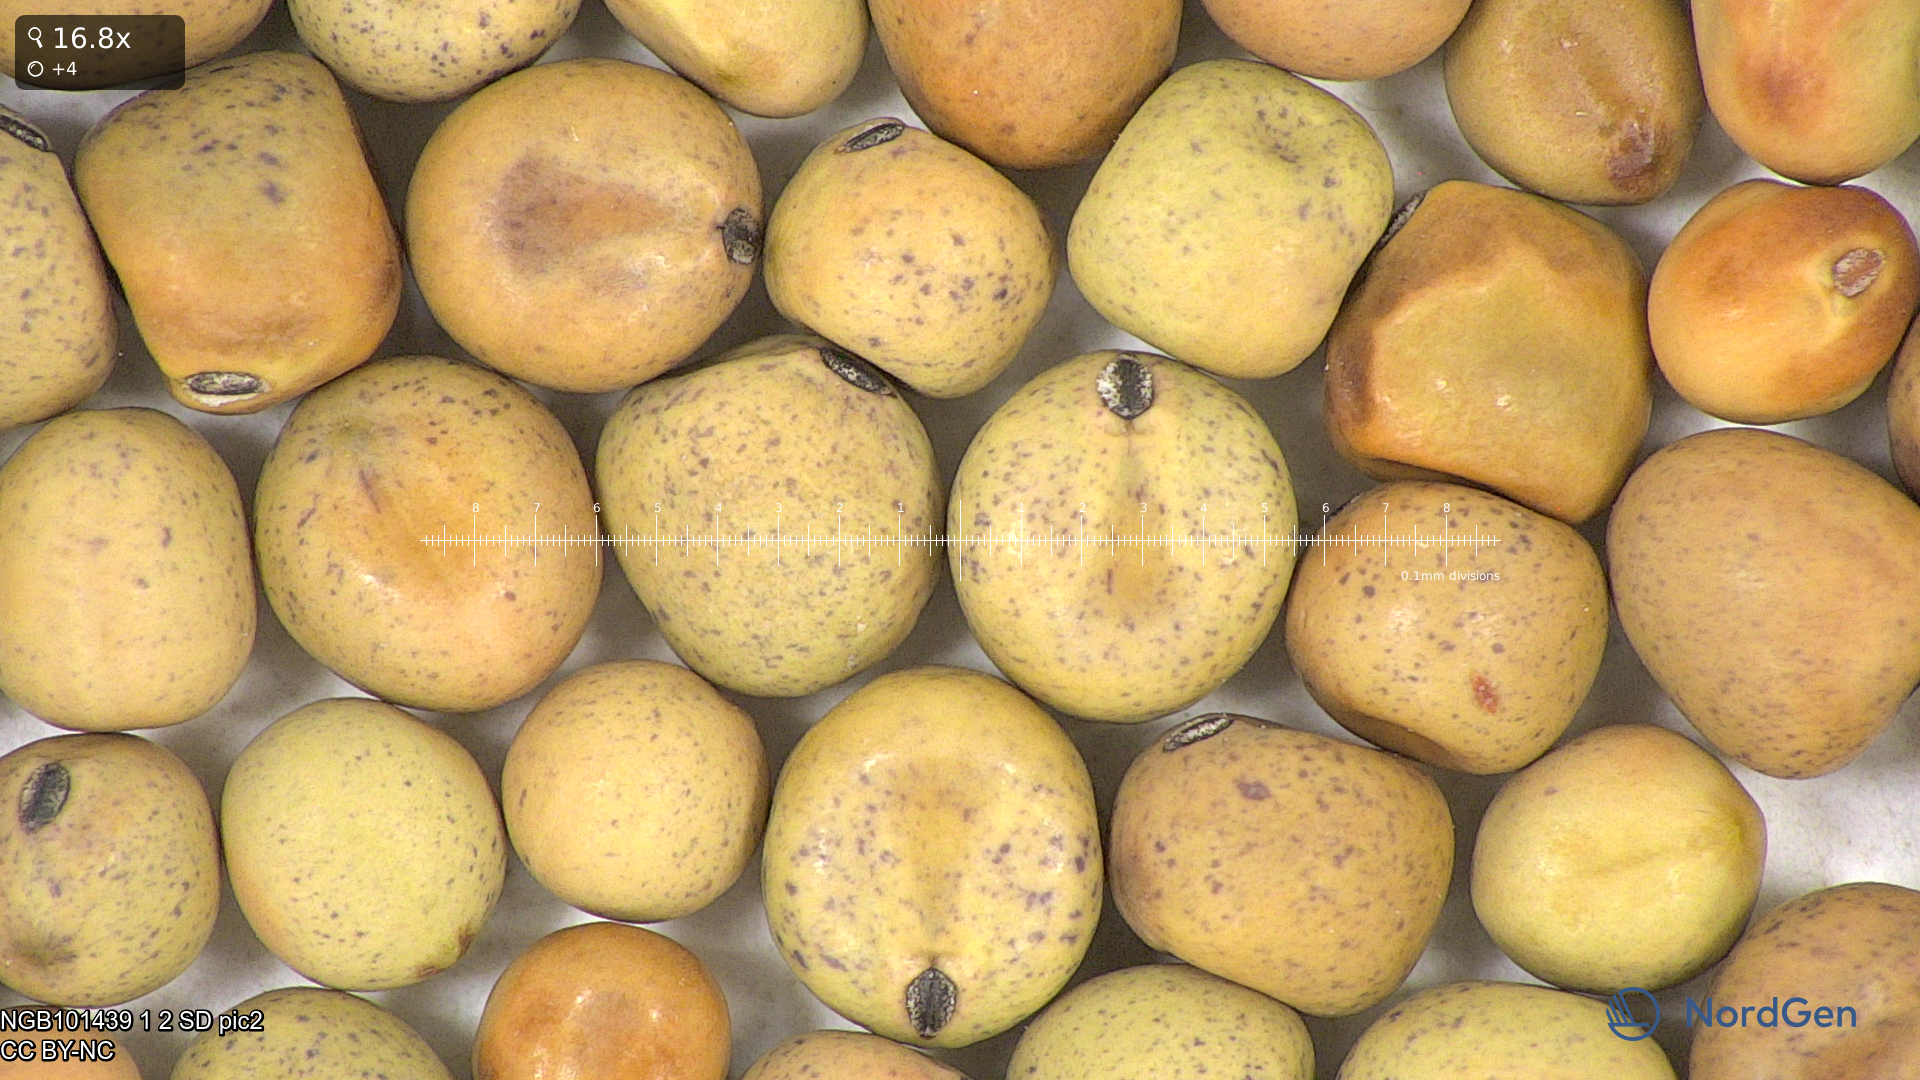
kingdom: Plantae
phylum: Tracheophyta
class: Magnoliopsida
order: Fabales
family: Fabaceae
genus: Lathyrus
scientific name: Lathyrus oleraceus
